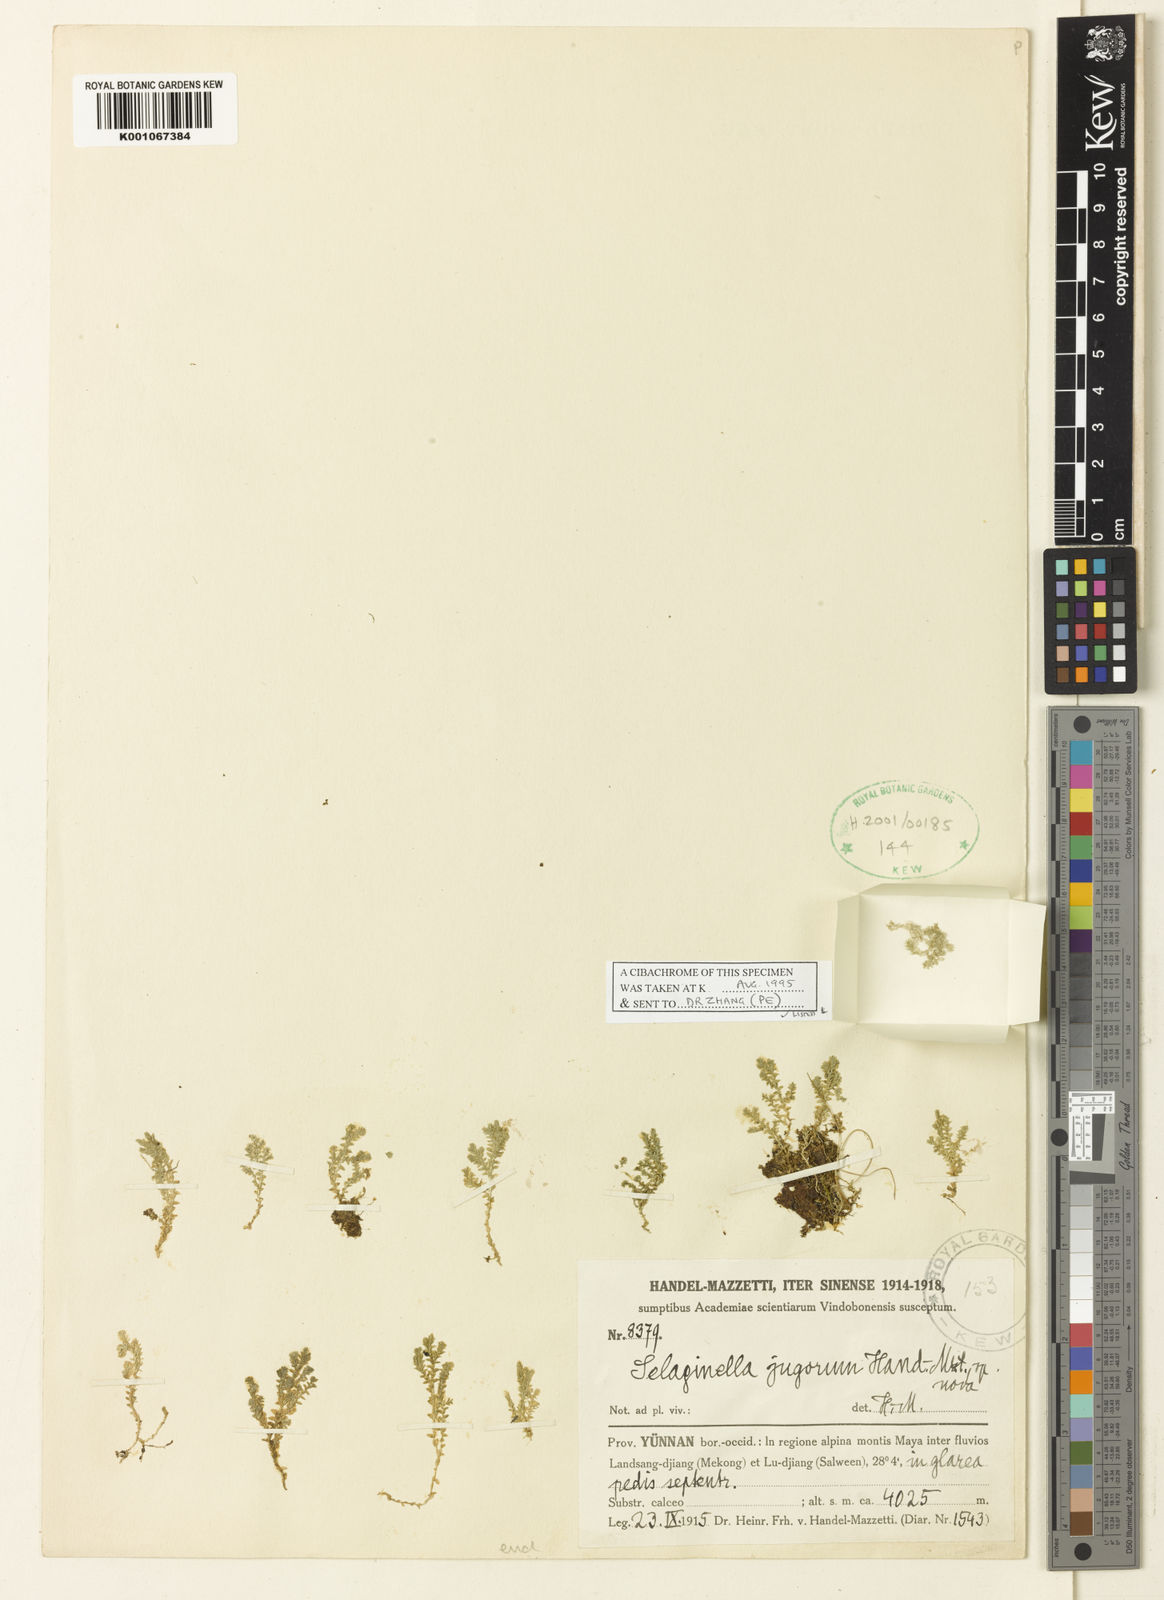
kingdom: Plantae
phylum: Tracheophyta
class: Lycopodiopsida
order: Selaginellales
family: Selaginellaceae
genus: Selaginella
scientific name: Selaginella nipponica
